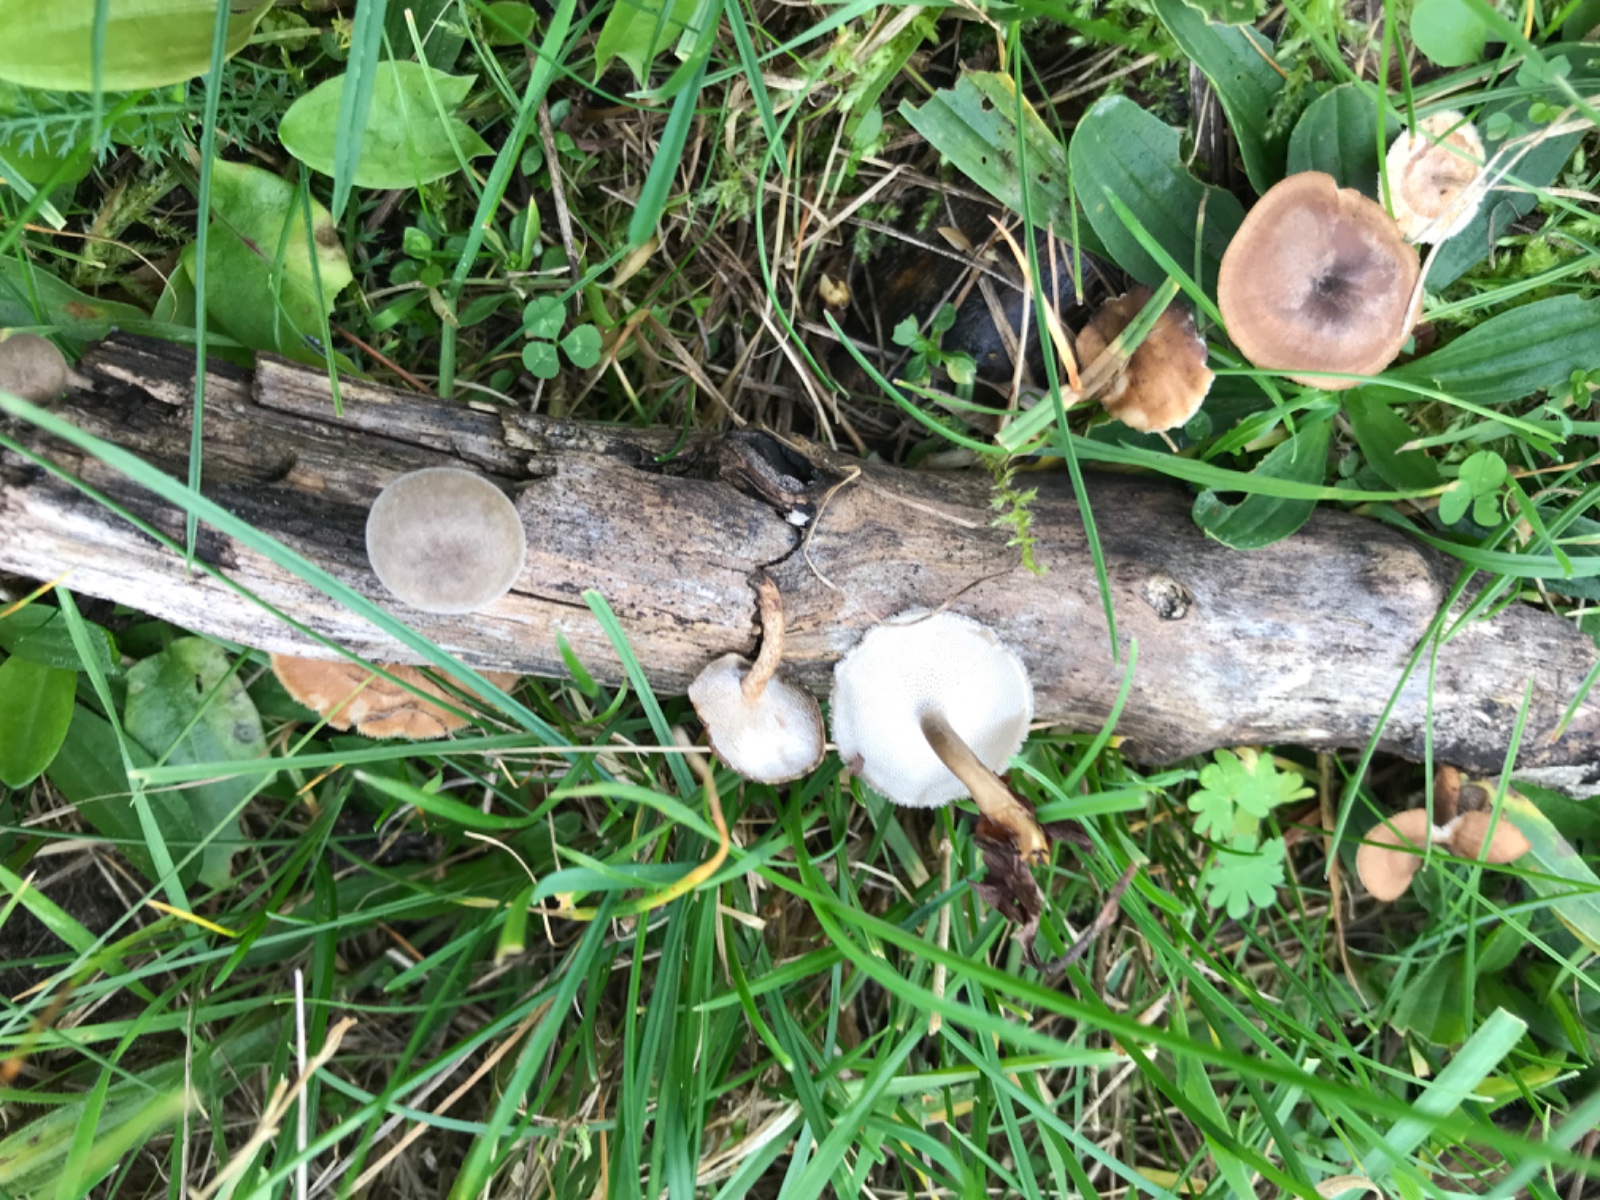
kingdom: Fungi
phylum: Basidiomycota
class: Agaricomycetes
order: Polyporales
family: Polyporaceae
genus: Lentinus
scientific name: Lentinus brumalis
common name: vinter-stilkporesvamp
